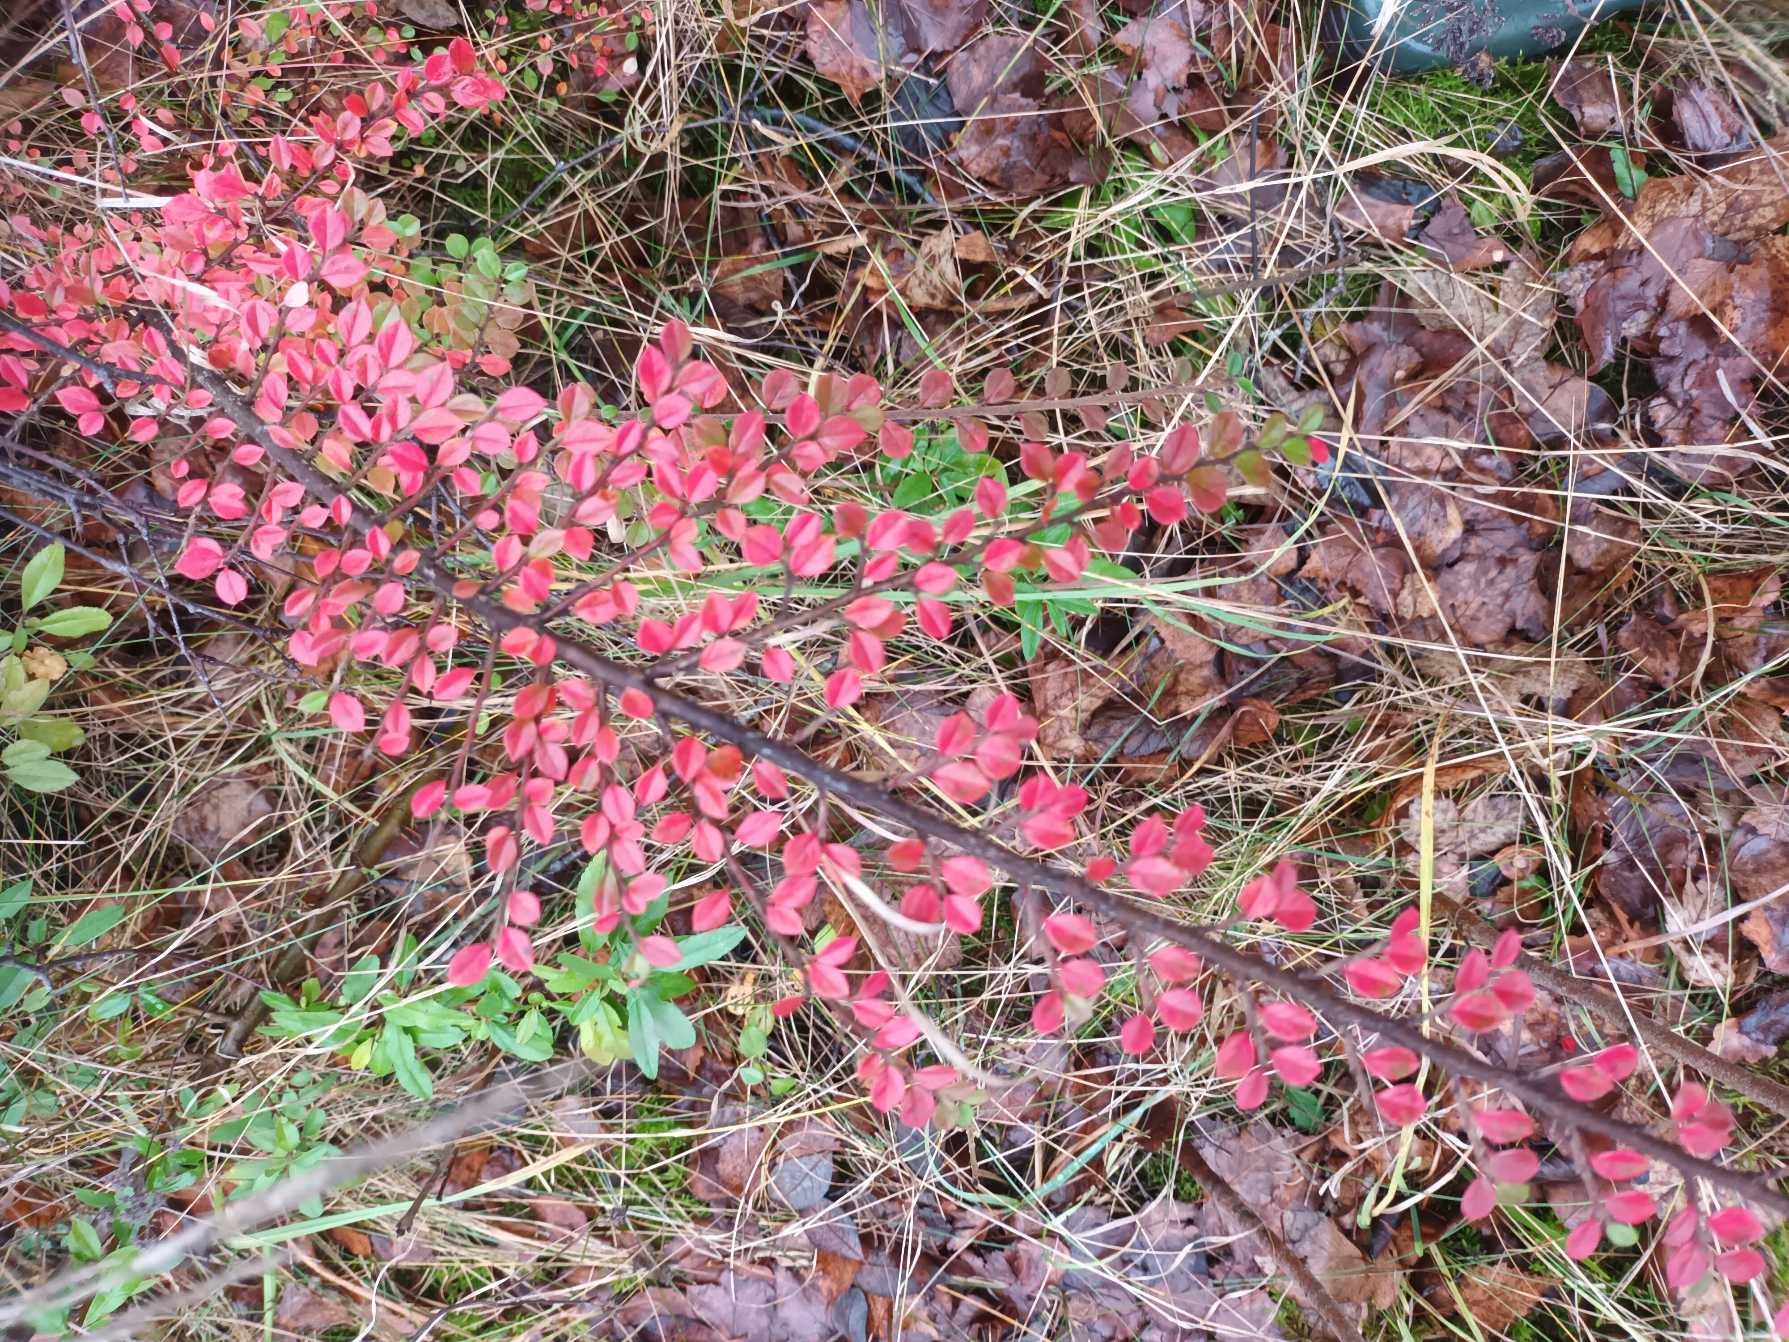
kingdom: Plantae
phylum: Tracheophyta
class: Magnoliopsida
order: Rosales
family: Rosaceae
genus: Cotoneaster
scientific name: Cotoneaster horizontalis
